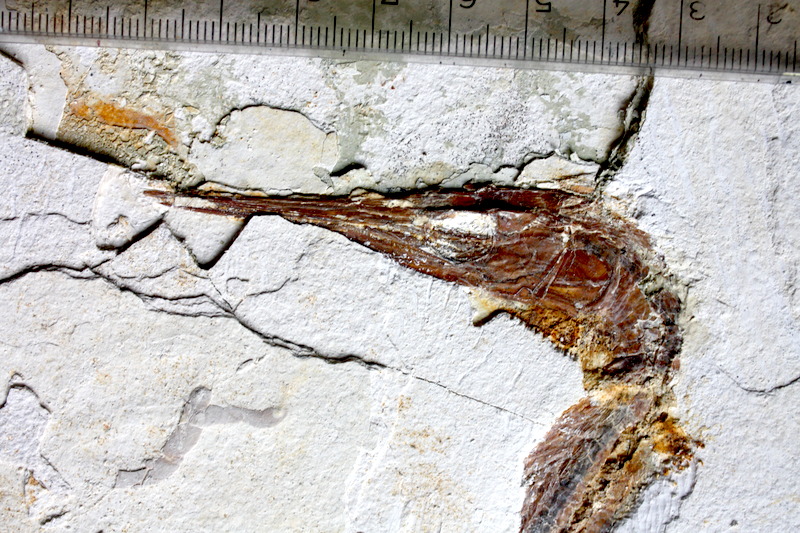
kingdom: Animalia
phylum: Chordata
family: Aspidorhynchidae
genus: Belonostomus
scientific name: Belonostomus kochii
